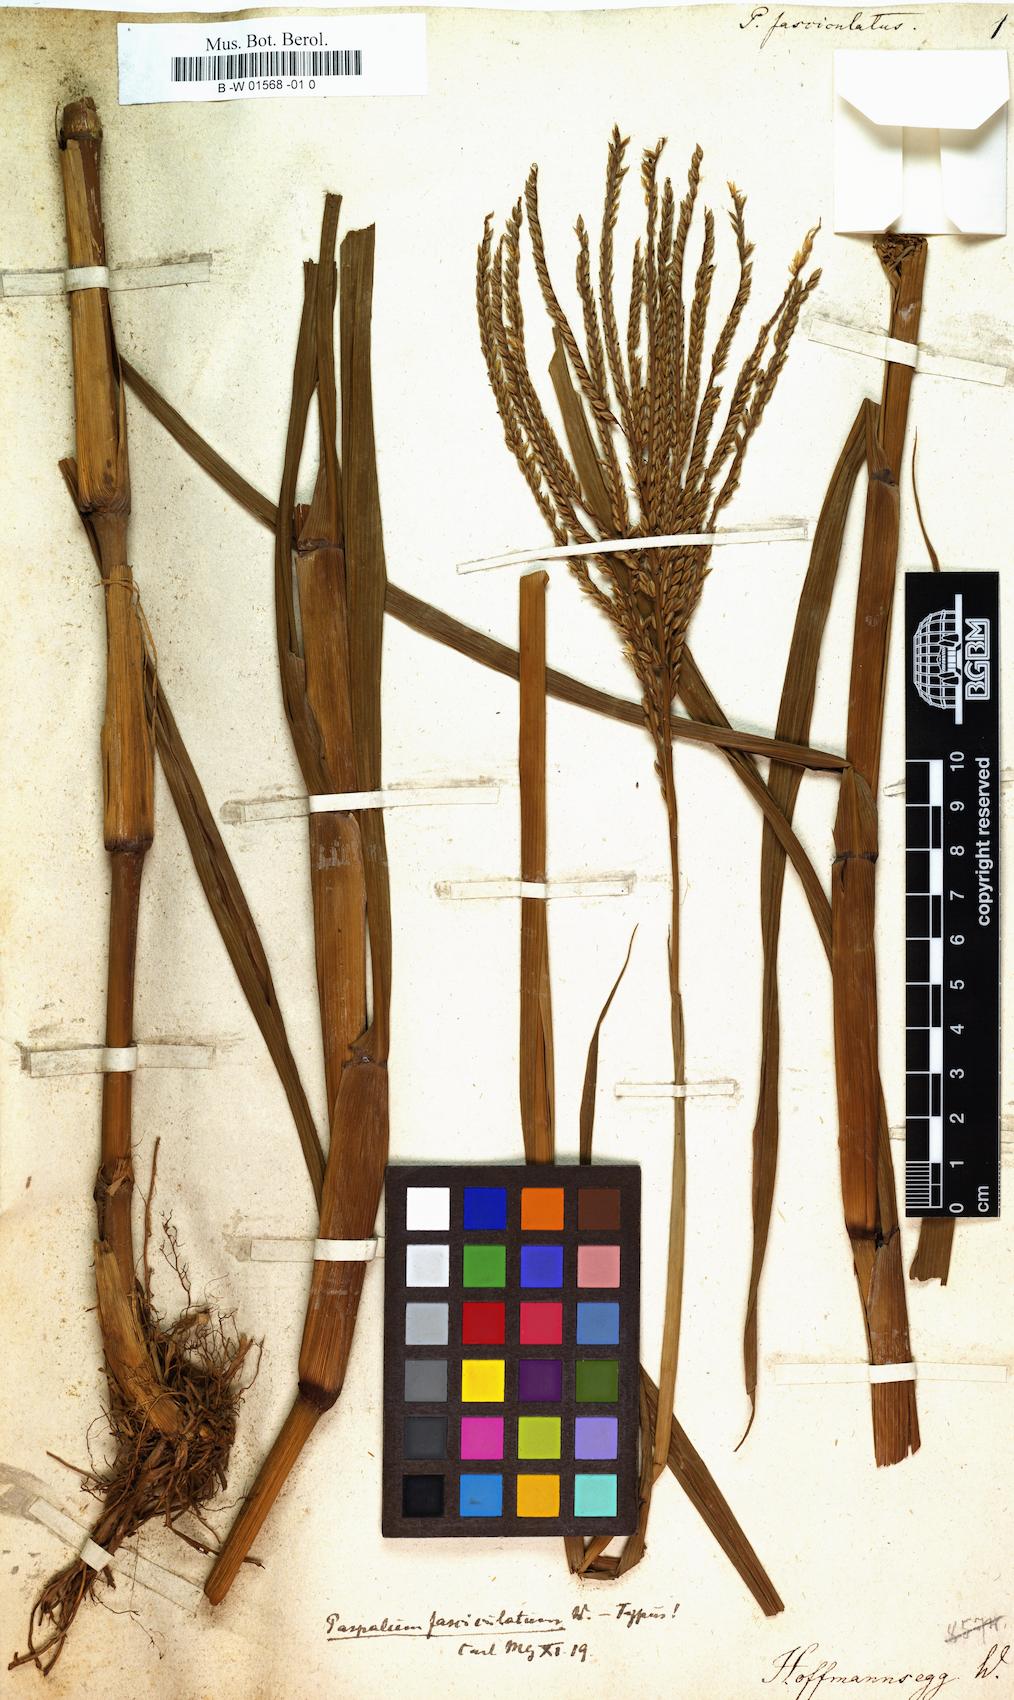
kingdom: Plantae
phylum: Tracheophyta
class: Liliopsida
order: Poales
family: Poaceae
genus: Paspalus
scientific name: Paspalus
